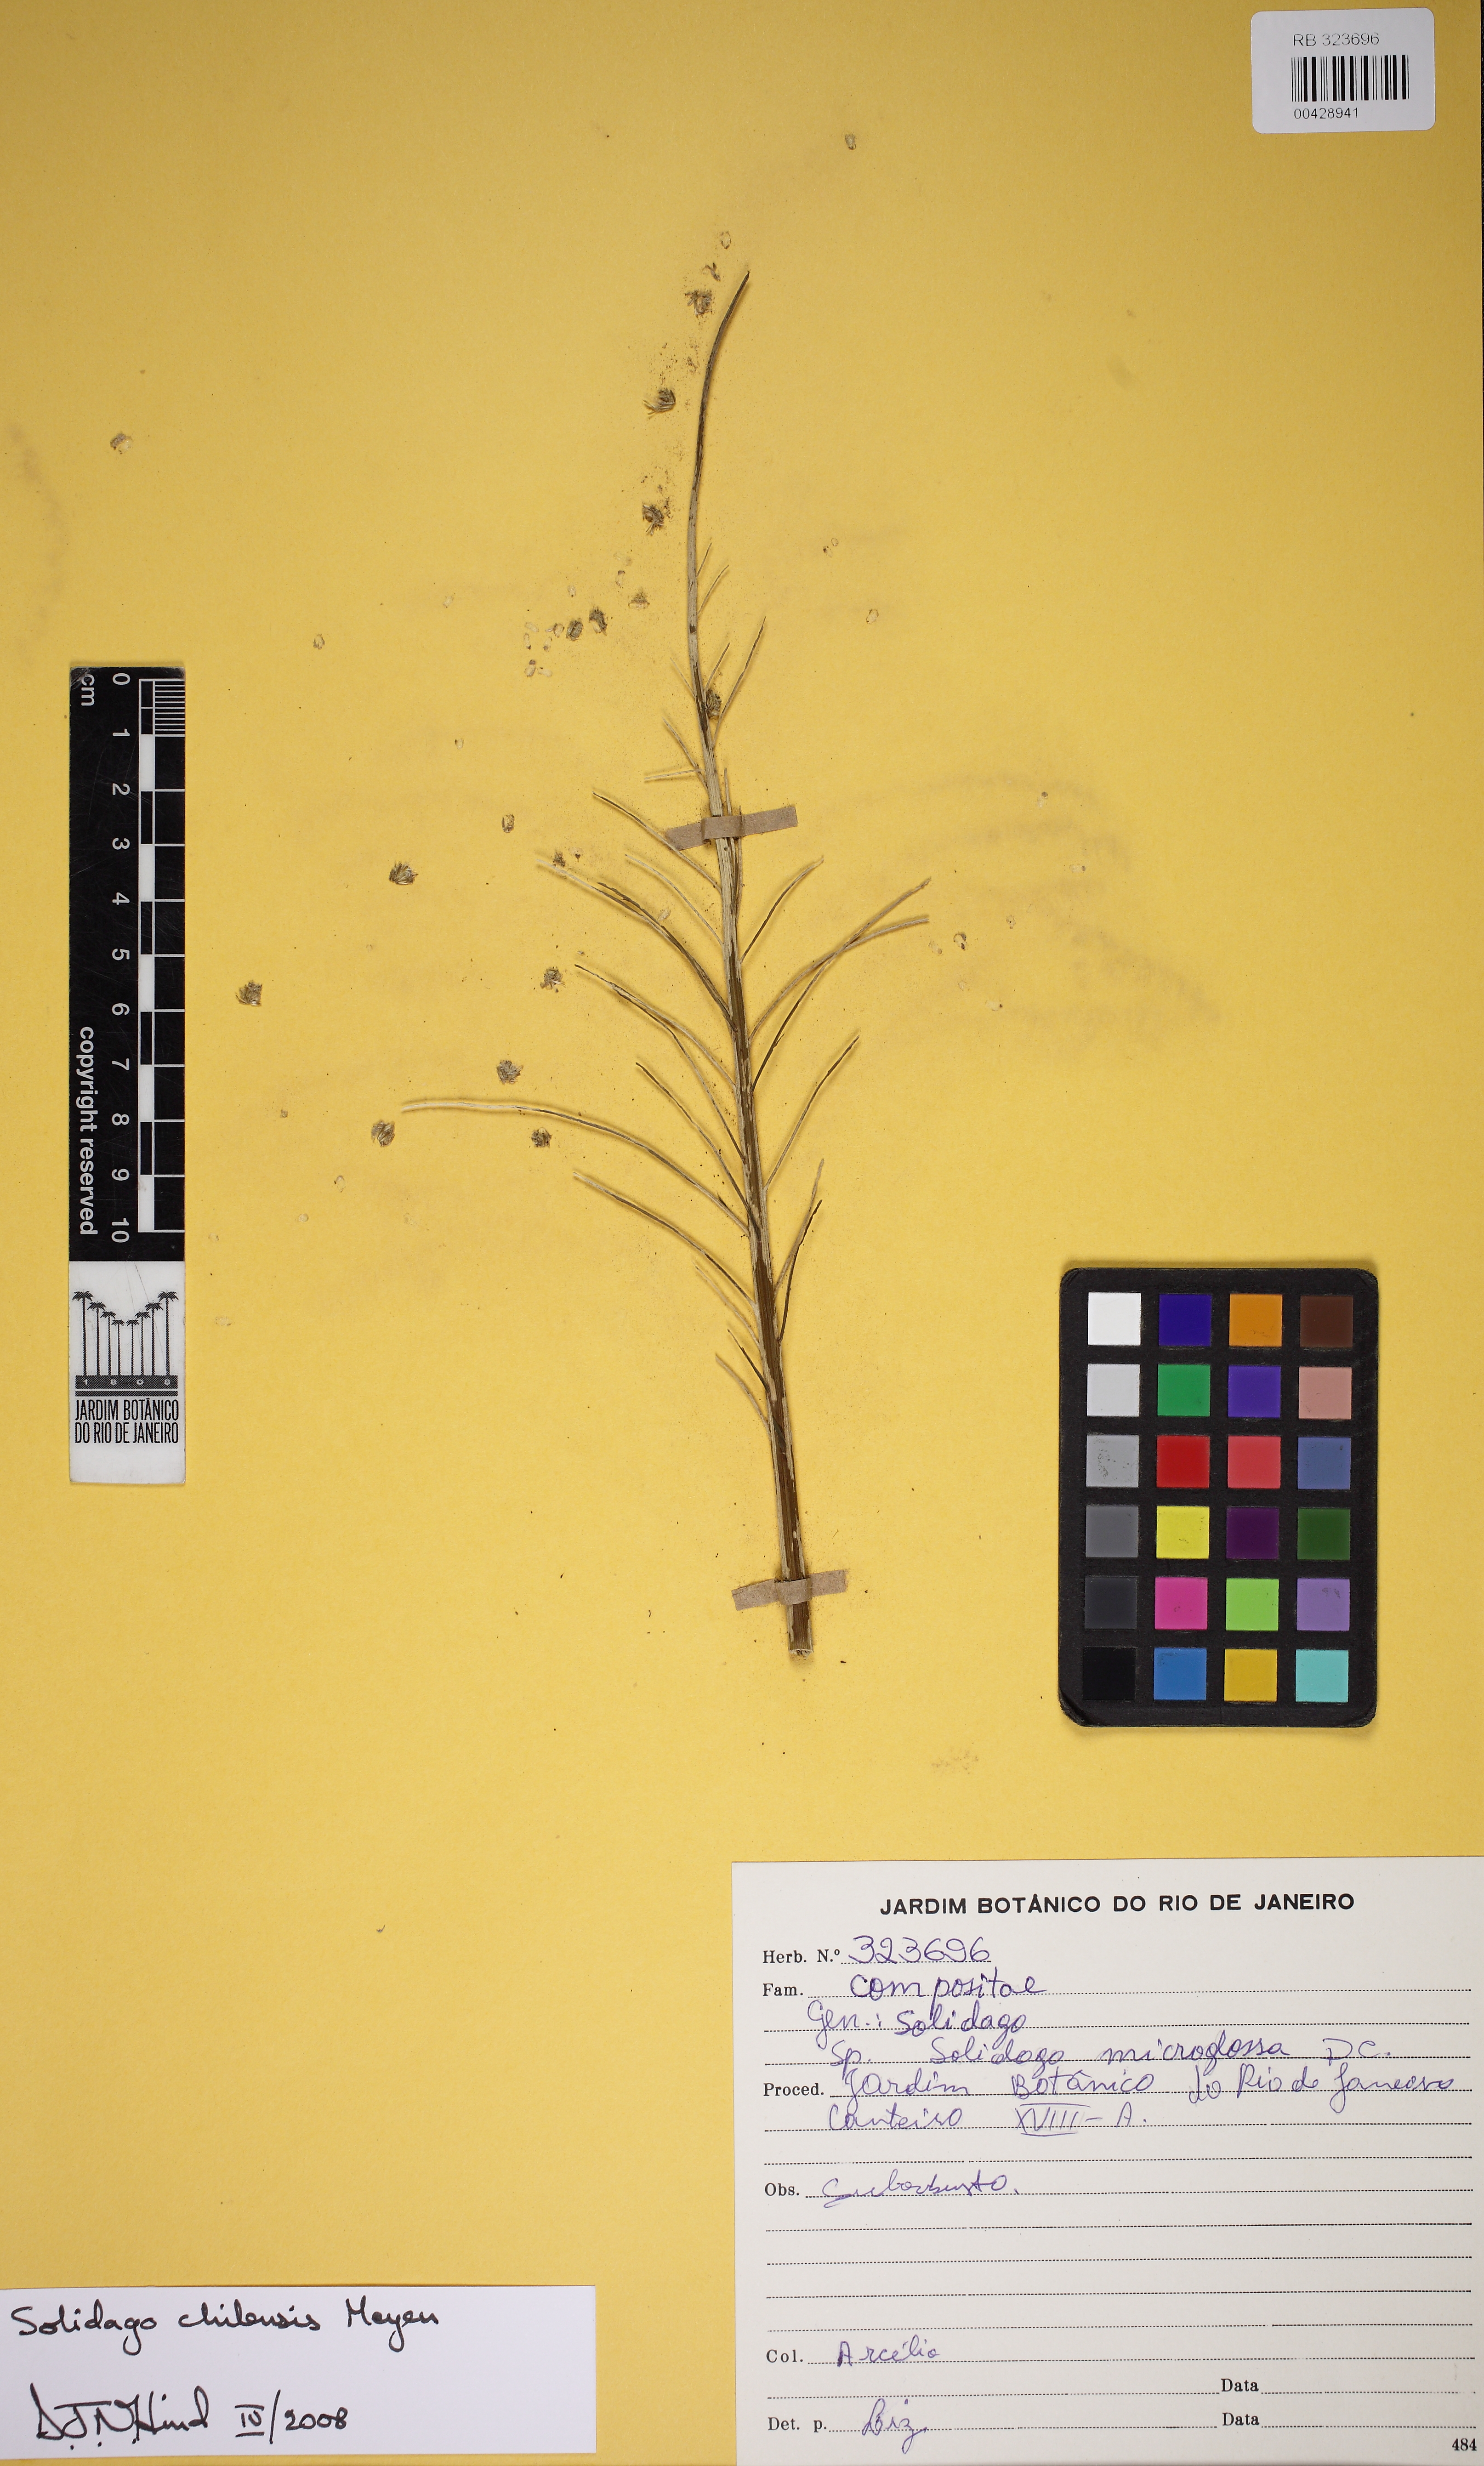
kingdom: Plantae
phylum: Tracheophyta
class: Magnoliopsida
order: Asterales
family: Asteraceae
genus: Solidago
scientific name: Solidago chilensis
